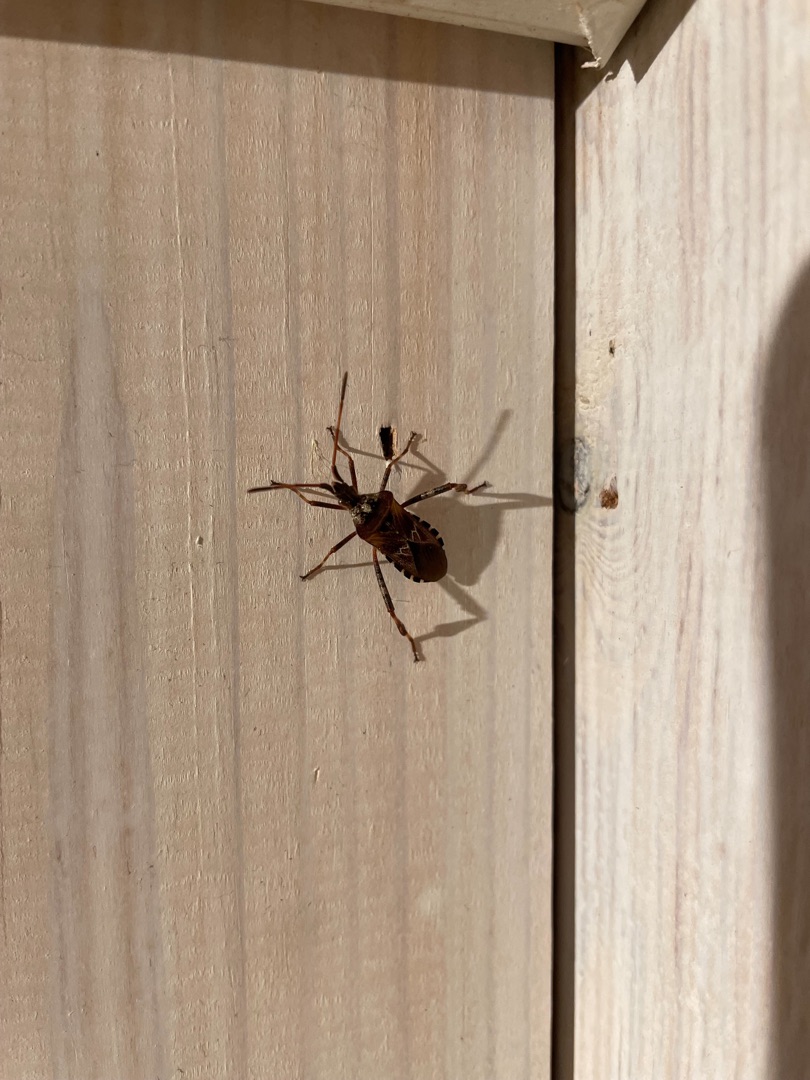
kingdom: Animalia
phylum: Arthropoda
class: Insecta
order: Hemiptera
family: Coreidae
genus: Leptoglossus
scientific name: Leptoglossus occidentalis
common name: Amerikansk fyrretæge
